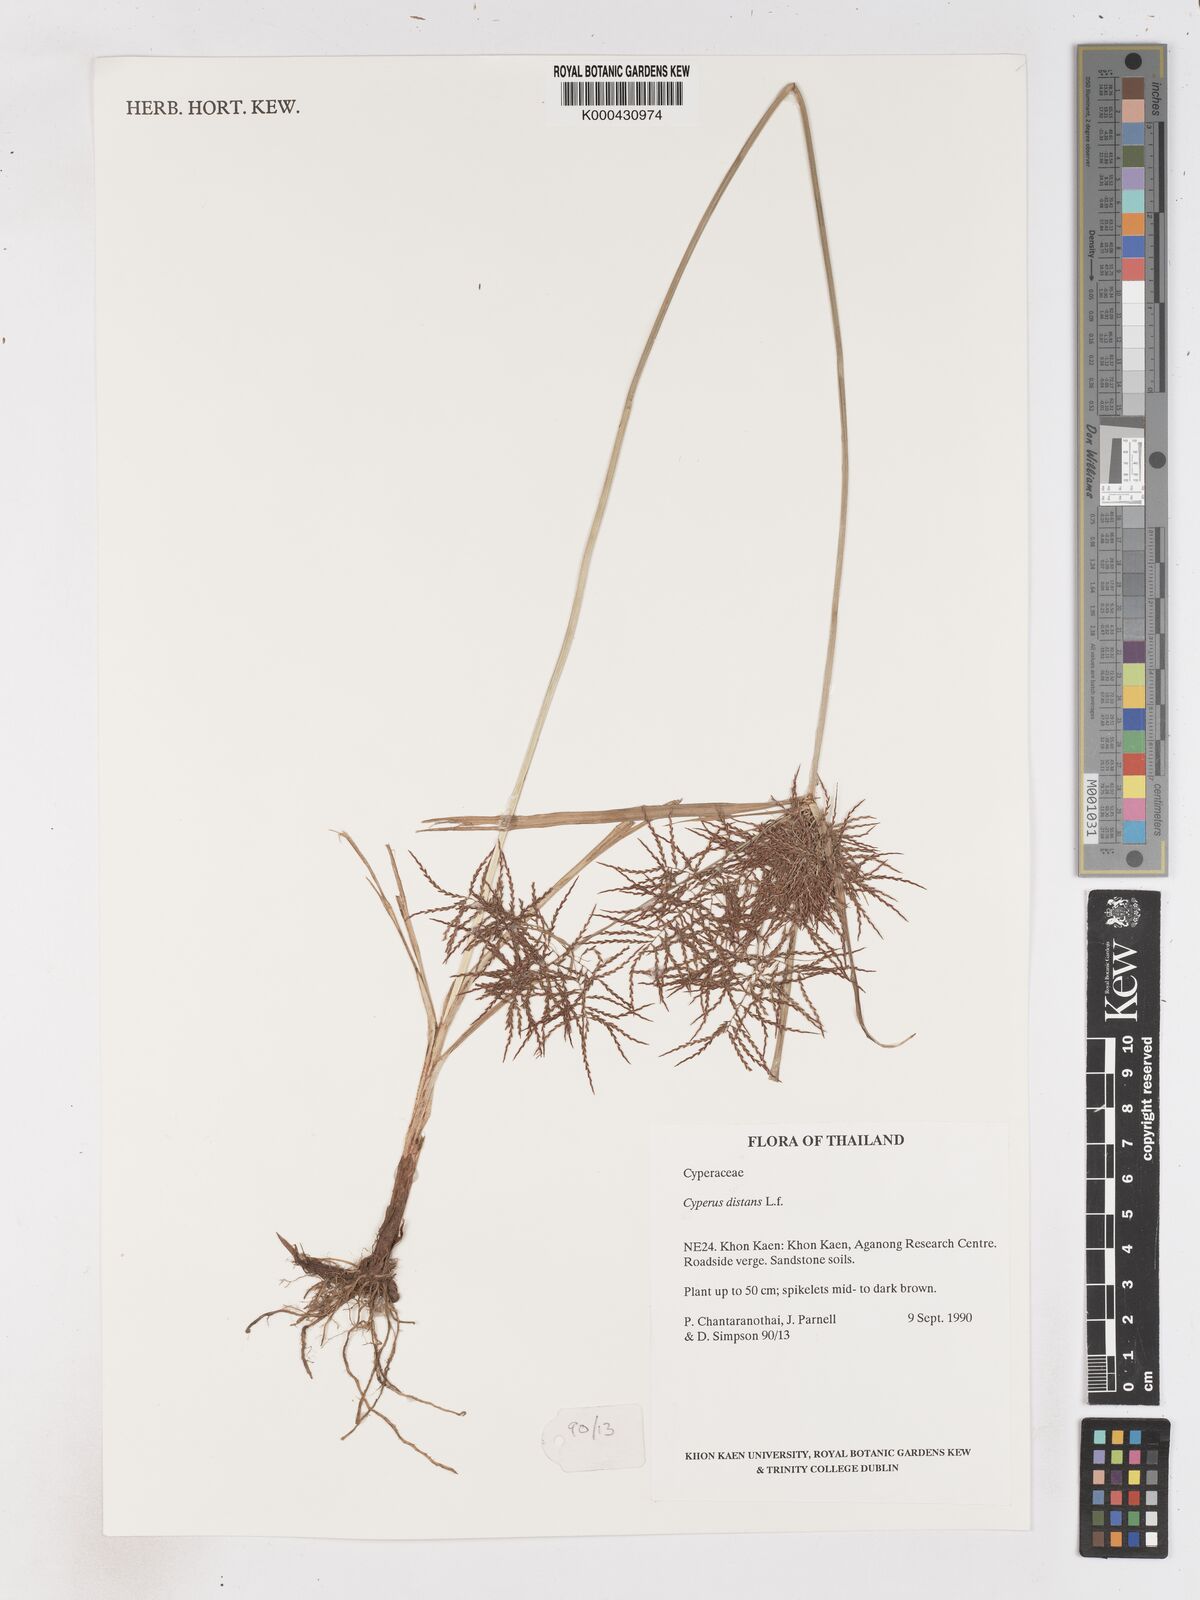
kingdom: Plantae
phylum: Tracheophyta
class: Liliopsida
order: Poales
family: Cyperaceae
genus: Cyperus
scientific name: Cyperus distans
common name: Slender cyperus
